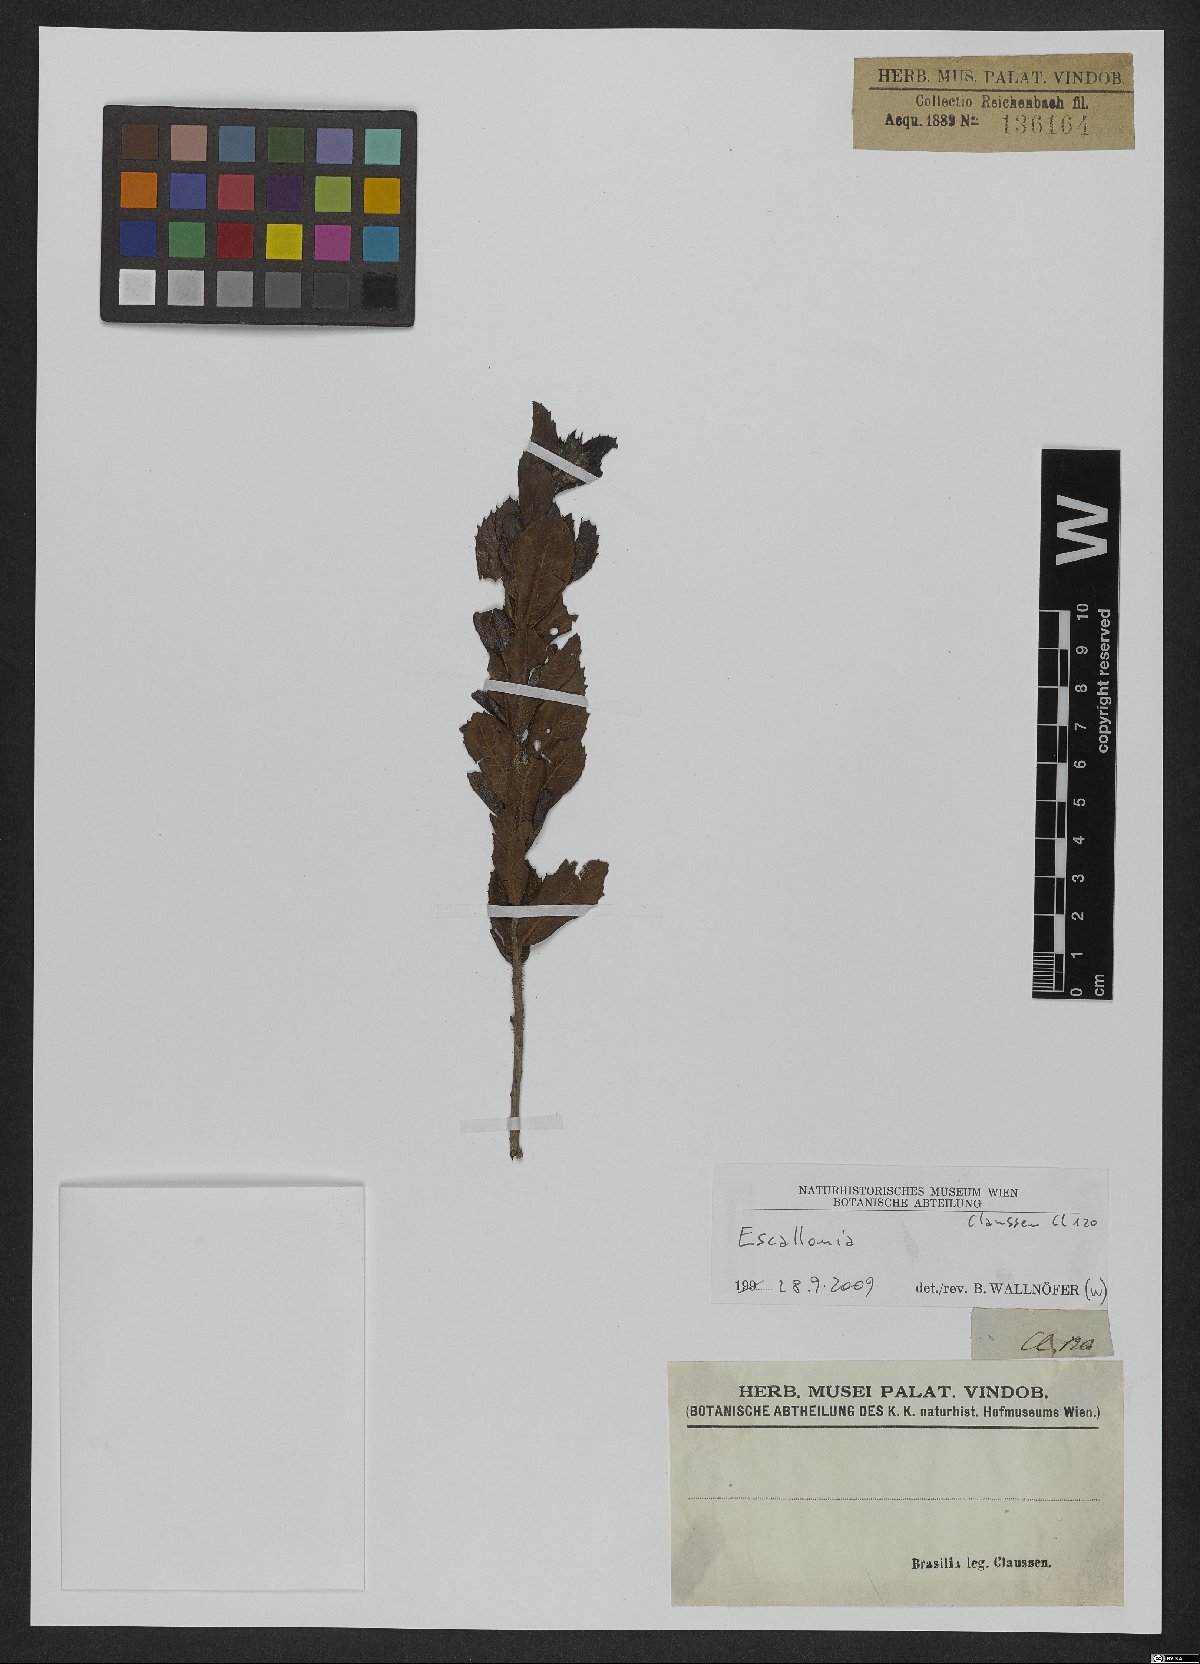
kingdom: Plantae
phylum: Tracheophyta
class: Magnoliopsida
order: Escalloniales
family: Escalloniaceae
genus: Escallonia
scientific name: Escallonia
